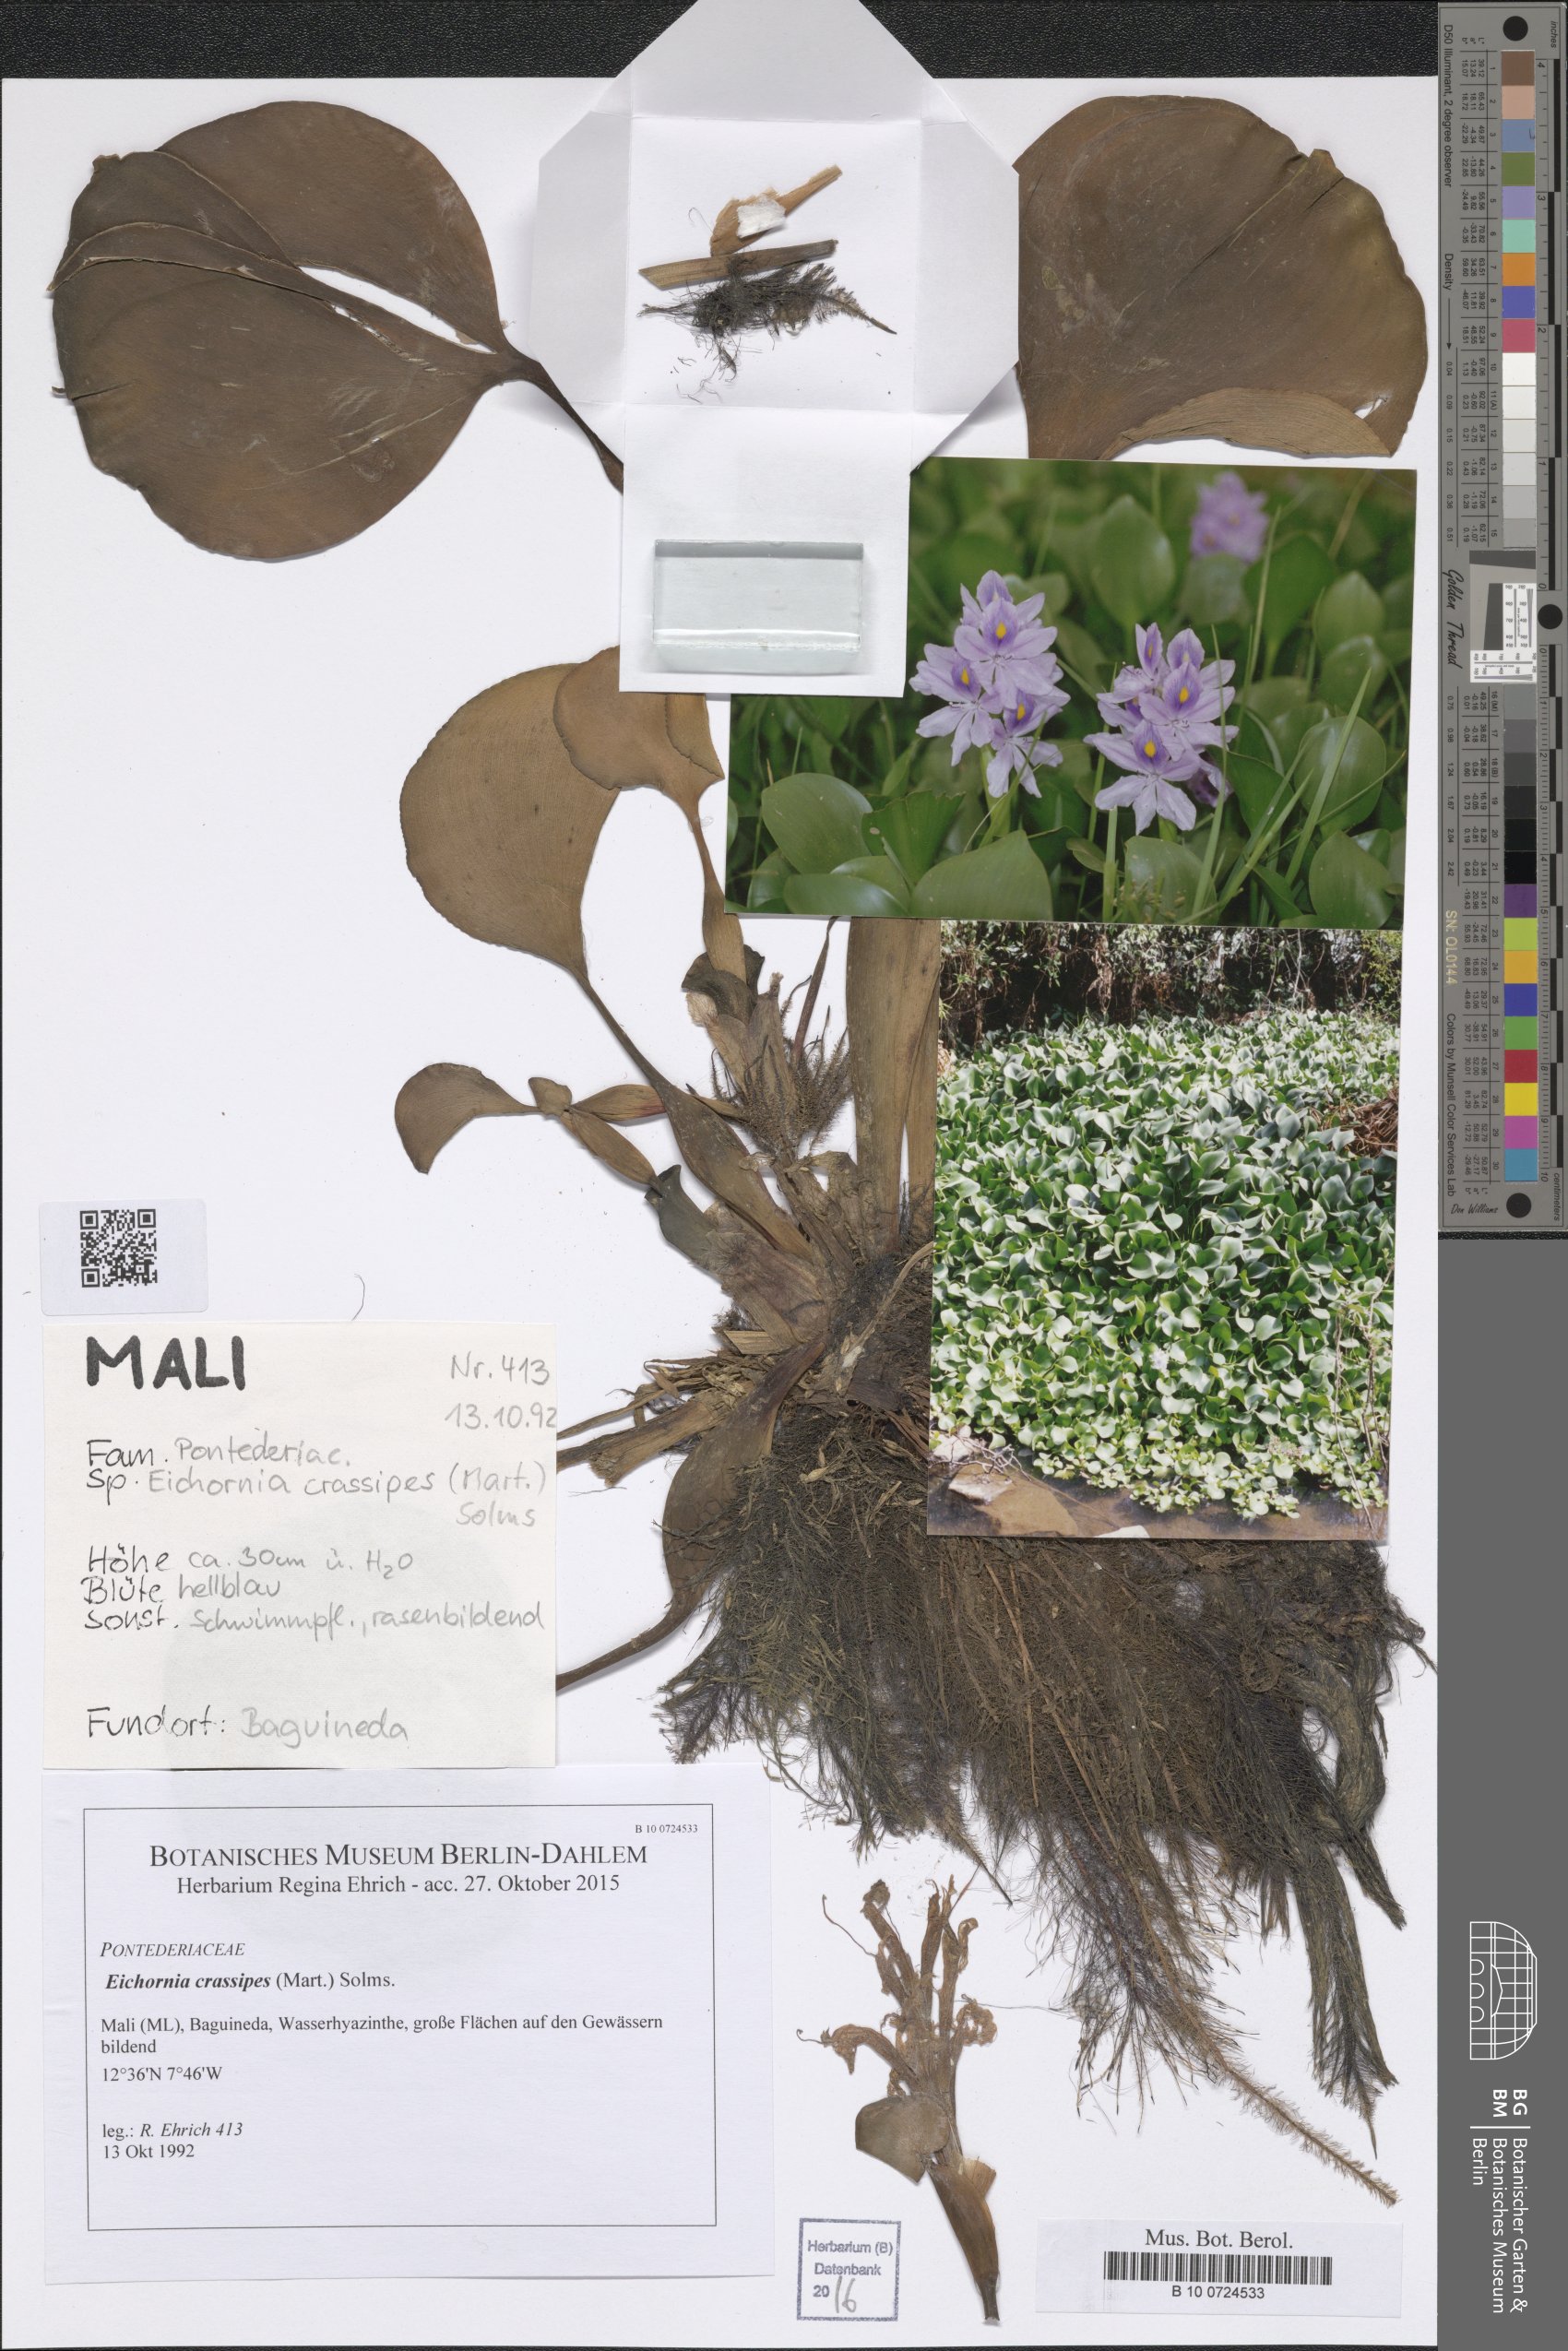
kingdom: Plantae
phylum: Tracheophyta
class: Liliopsida
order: Commelinales
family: Pontederiaceae
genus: Pontederia
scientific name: Pontederia crassipes
